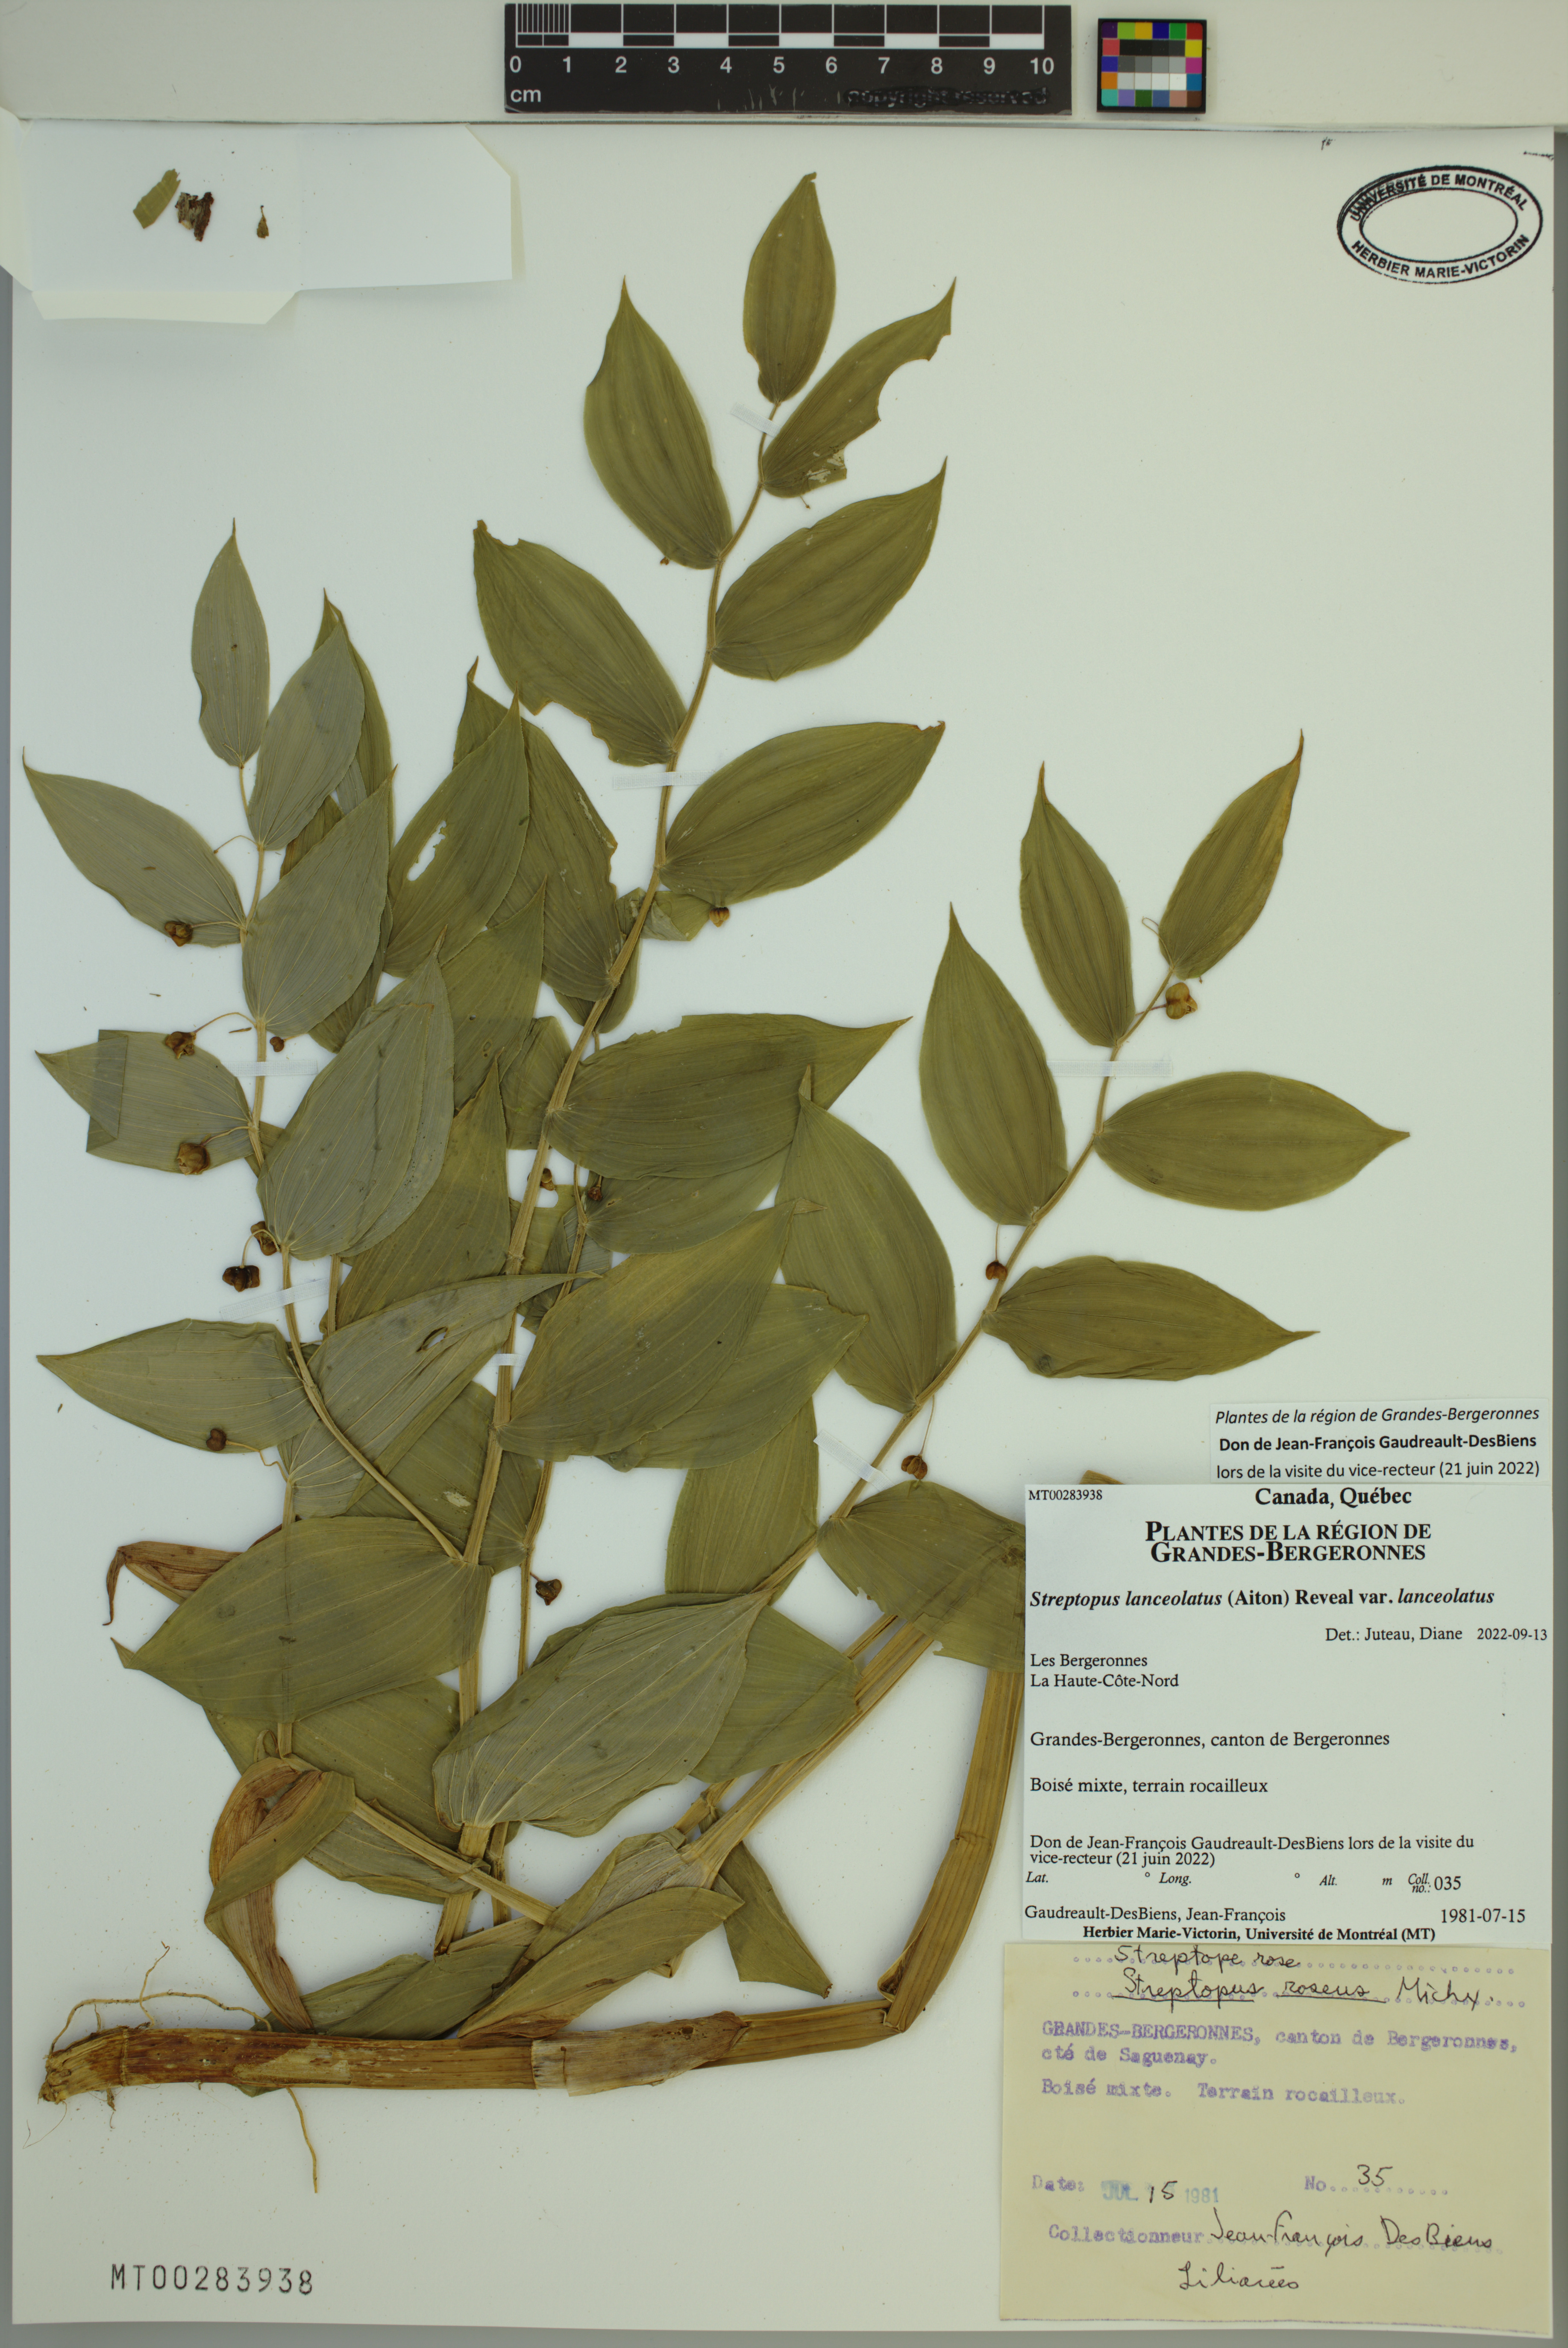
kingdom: Plantae
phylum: Tracheophyta
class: Liliopsida
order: Liliales
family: Liliaceae
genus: Streptopus
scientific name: Streptopus lanceolatus
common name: Rose mandarin
